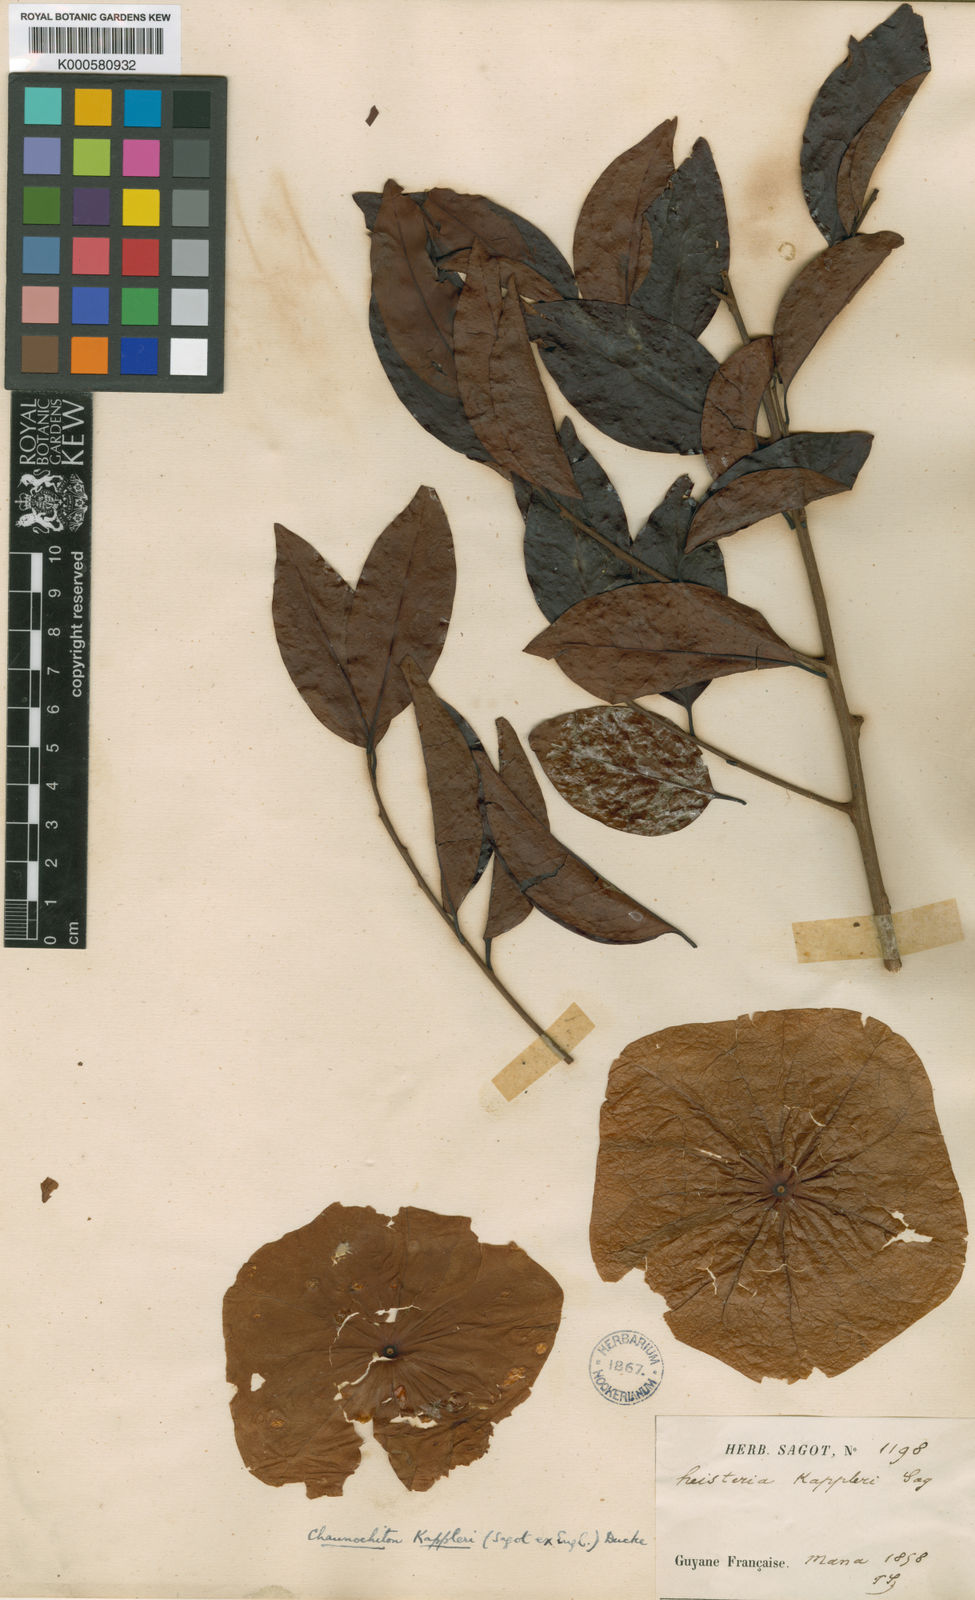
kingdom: Plantae
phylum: Tracheophyta
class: Magnoliopsida
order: Santalales
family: Aptandraceae
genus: Chaunochiton
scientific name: Chaunochiton kappleri
